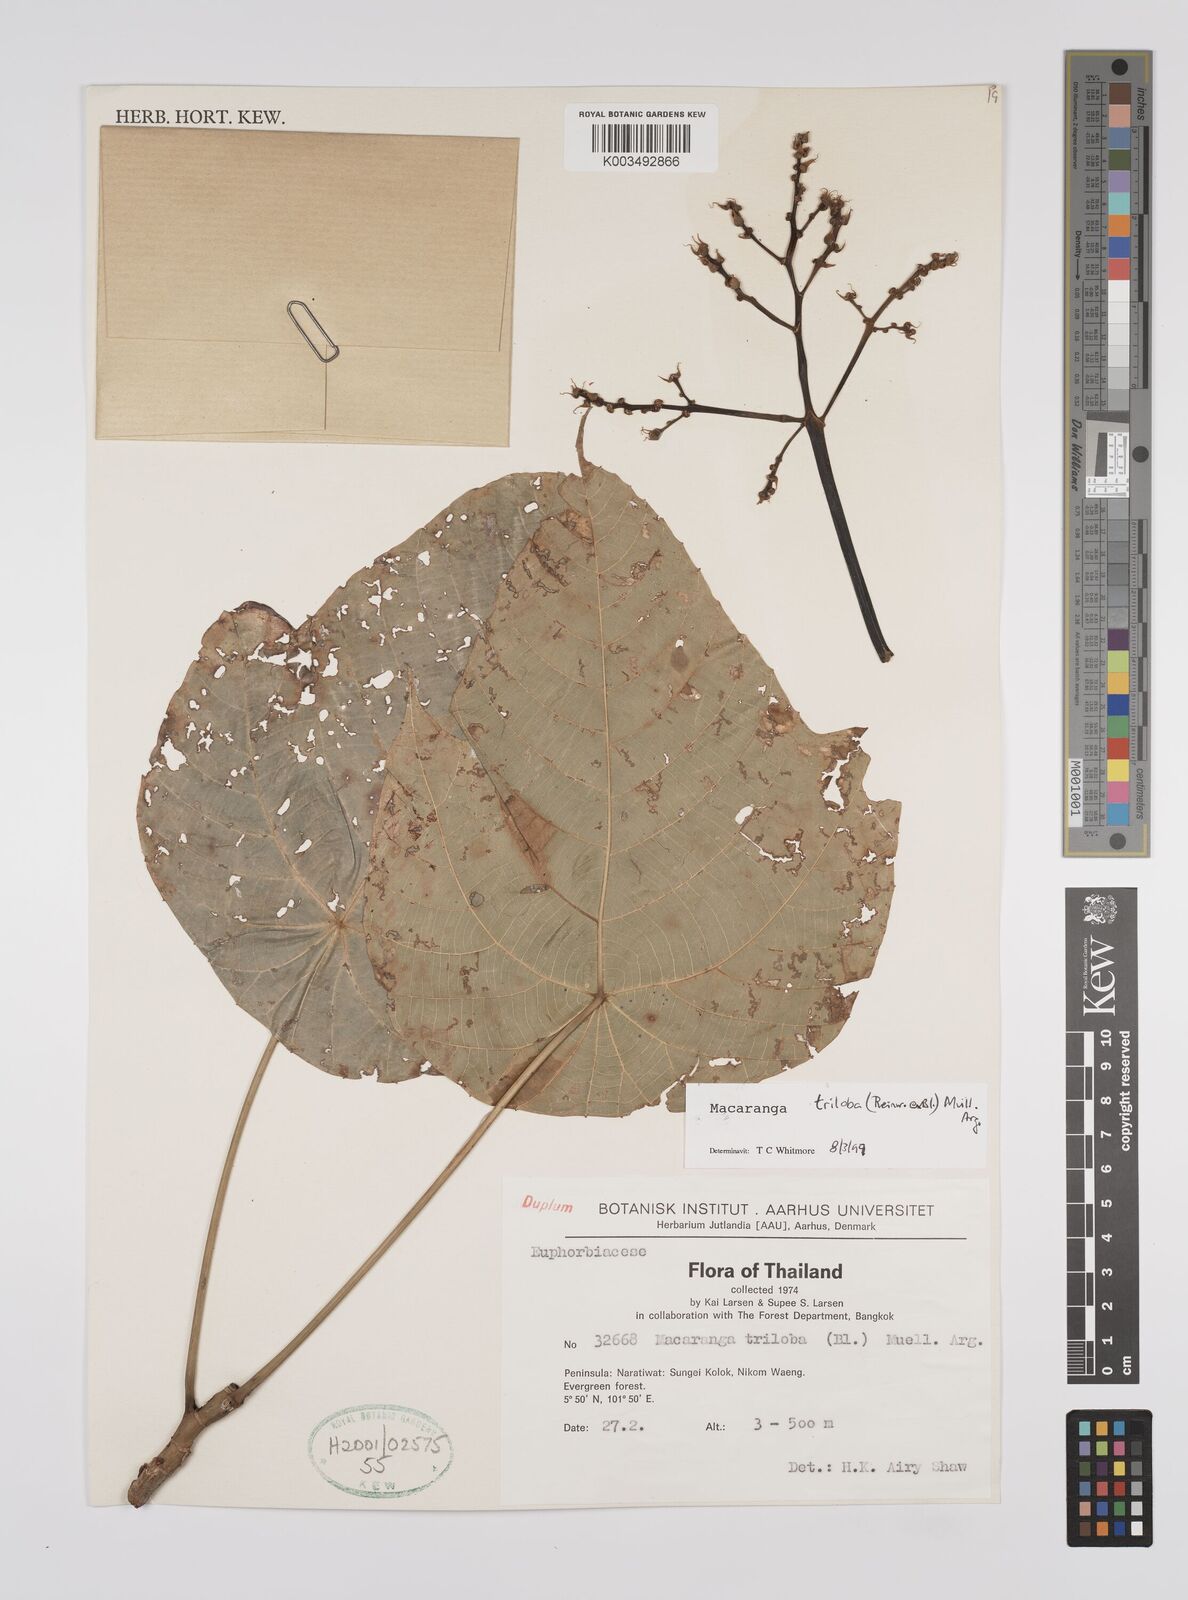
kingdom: Plantae
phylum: Tracheophyta
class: Magnoliopsida
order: Malpighiales
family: Euphorbiaceae
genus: Macaranga
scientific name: Macaranga triloba
